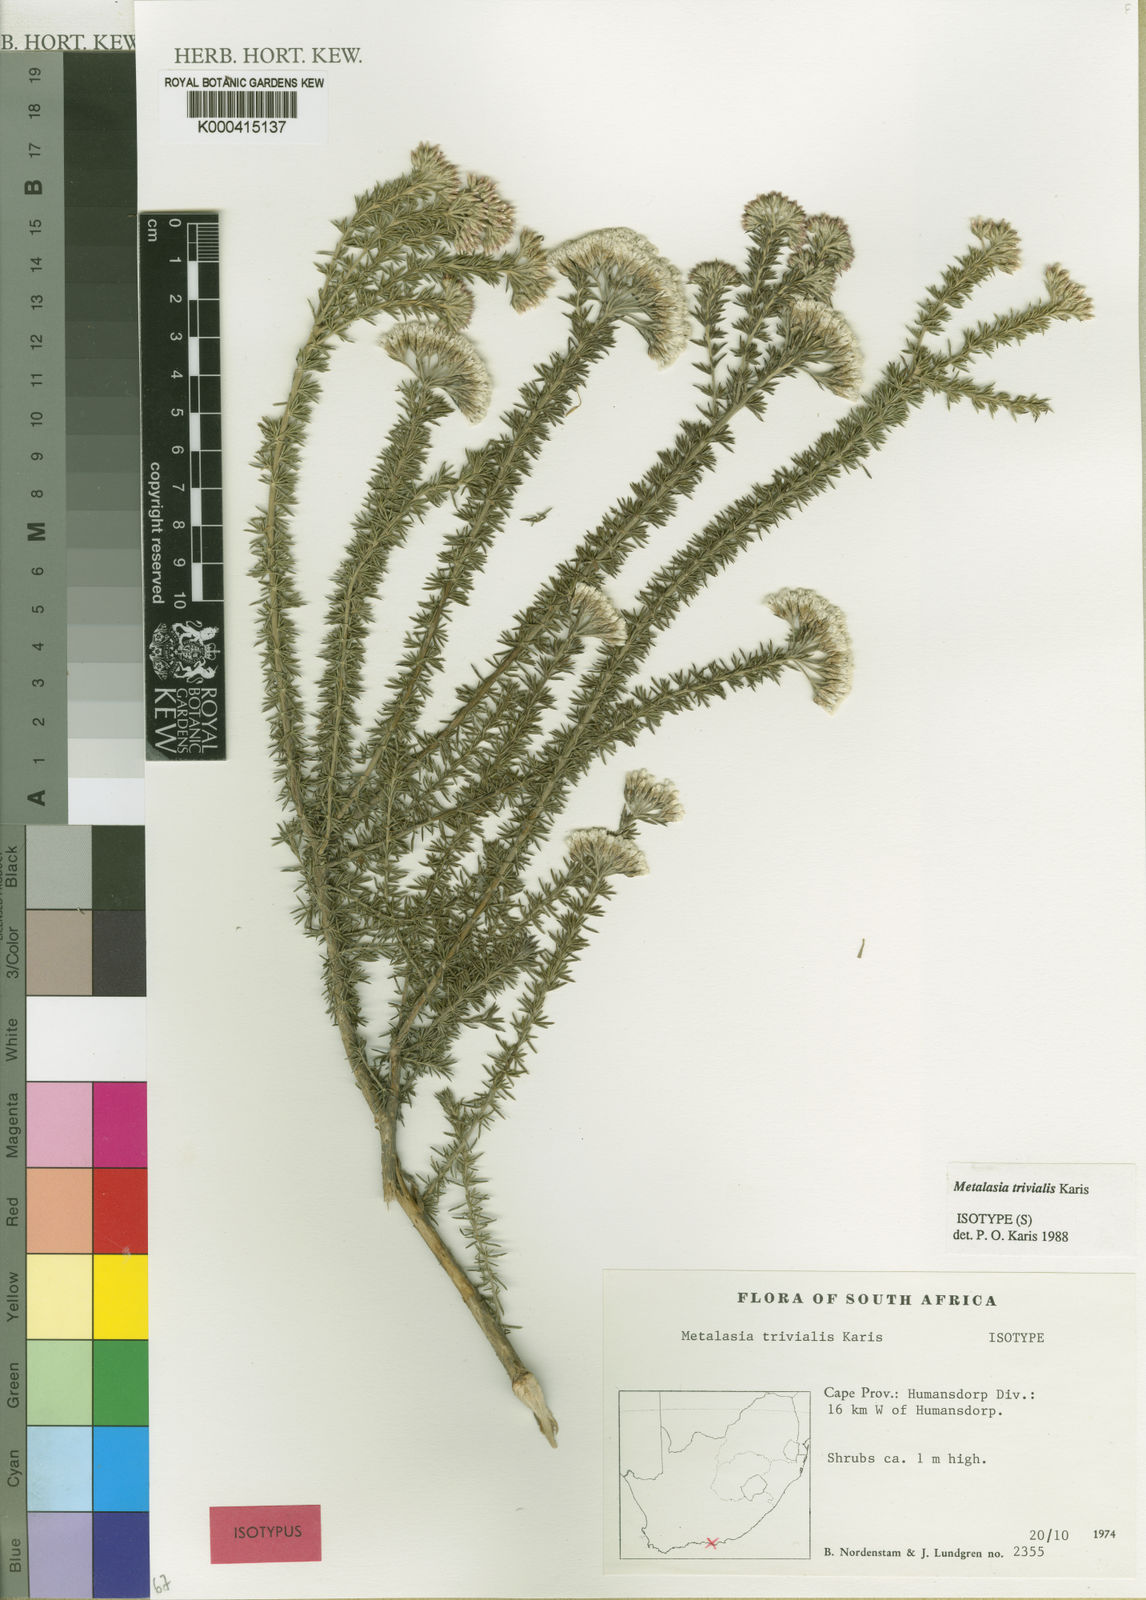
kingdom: Plantae
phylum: Tracheophyta
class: Magnoliopsida
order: Asterales
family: Asteraceae
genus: Metalasia
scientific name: Metalasia trivialis
